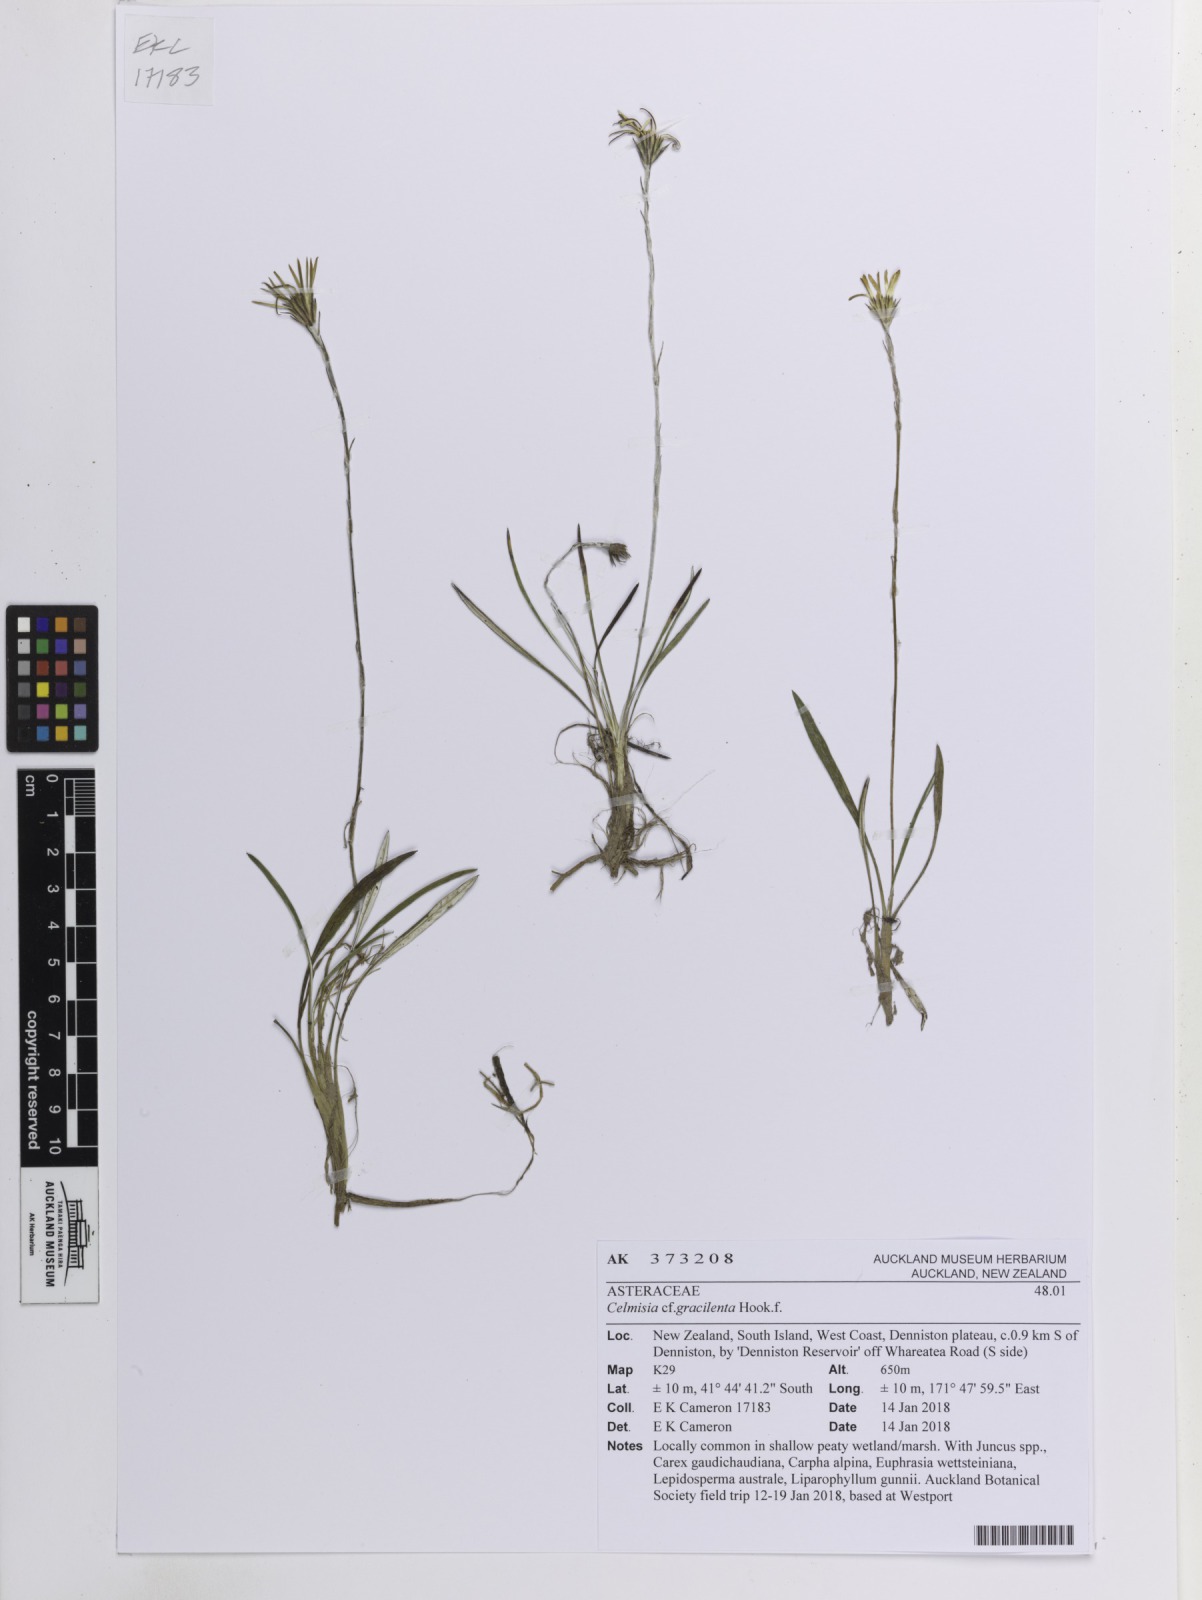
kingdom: Plantae
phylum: Tracheophyta
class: Magnoliopsida
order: Asterales
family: Asteraceae
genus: Celmisia
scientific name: Celmisia gracilenta
